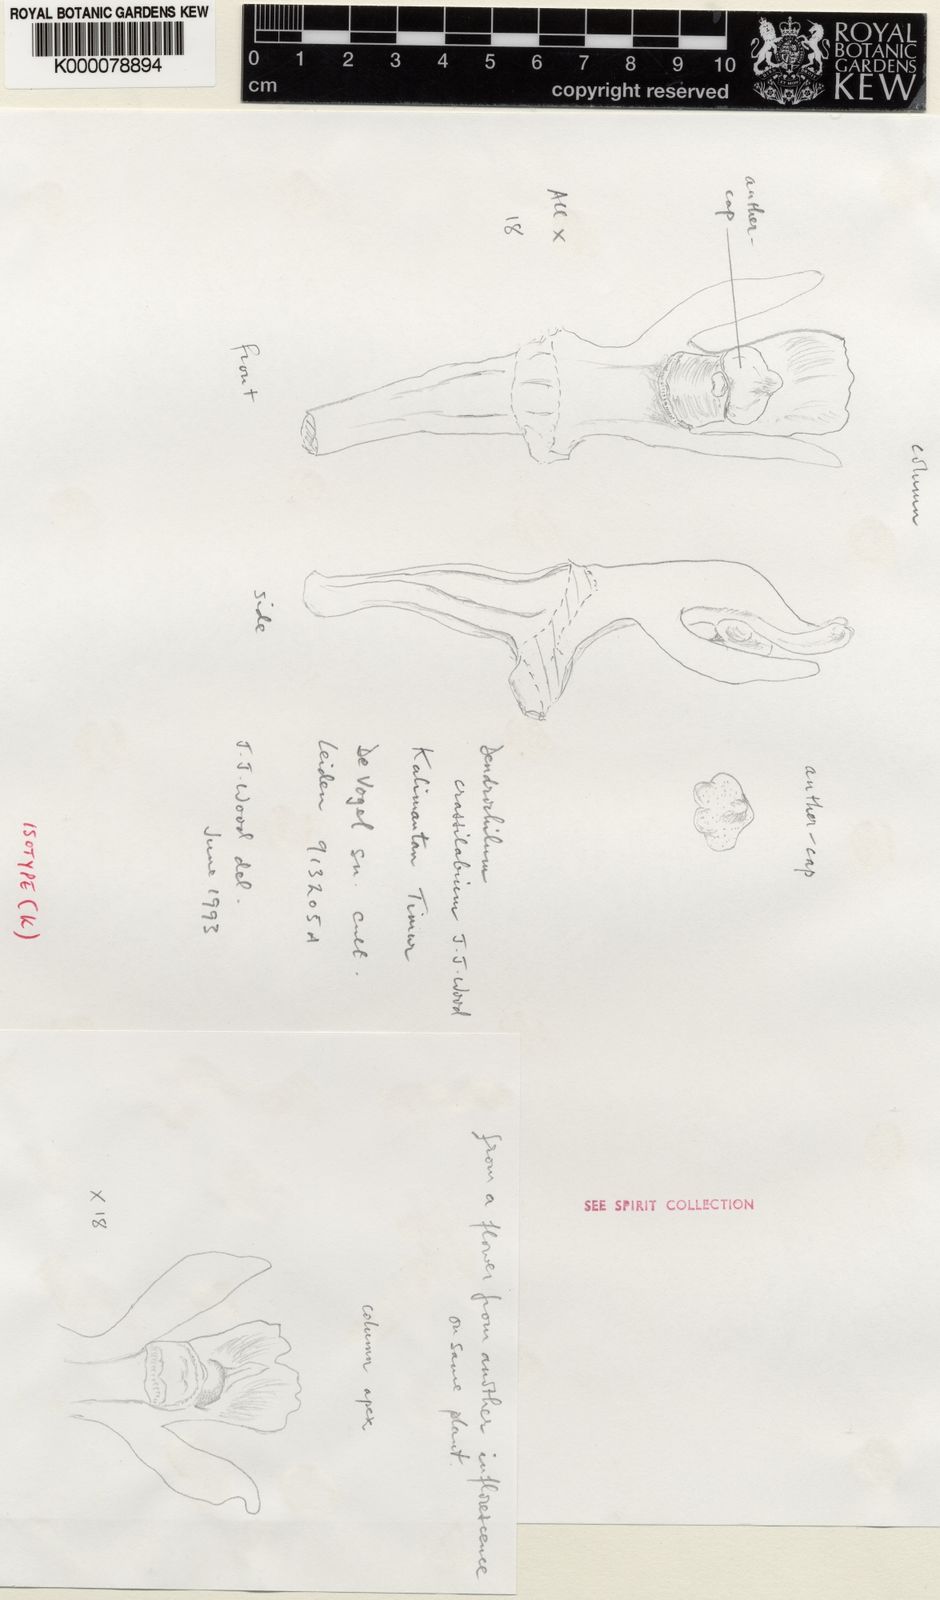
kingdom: Plantae
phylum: Tracheophyta
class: Liliopsida
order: Asparagales
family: Orchidaceae
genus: Coelogyne
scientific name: Coelogyne crassilabia
